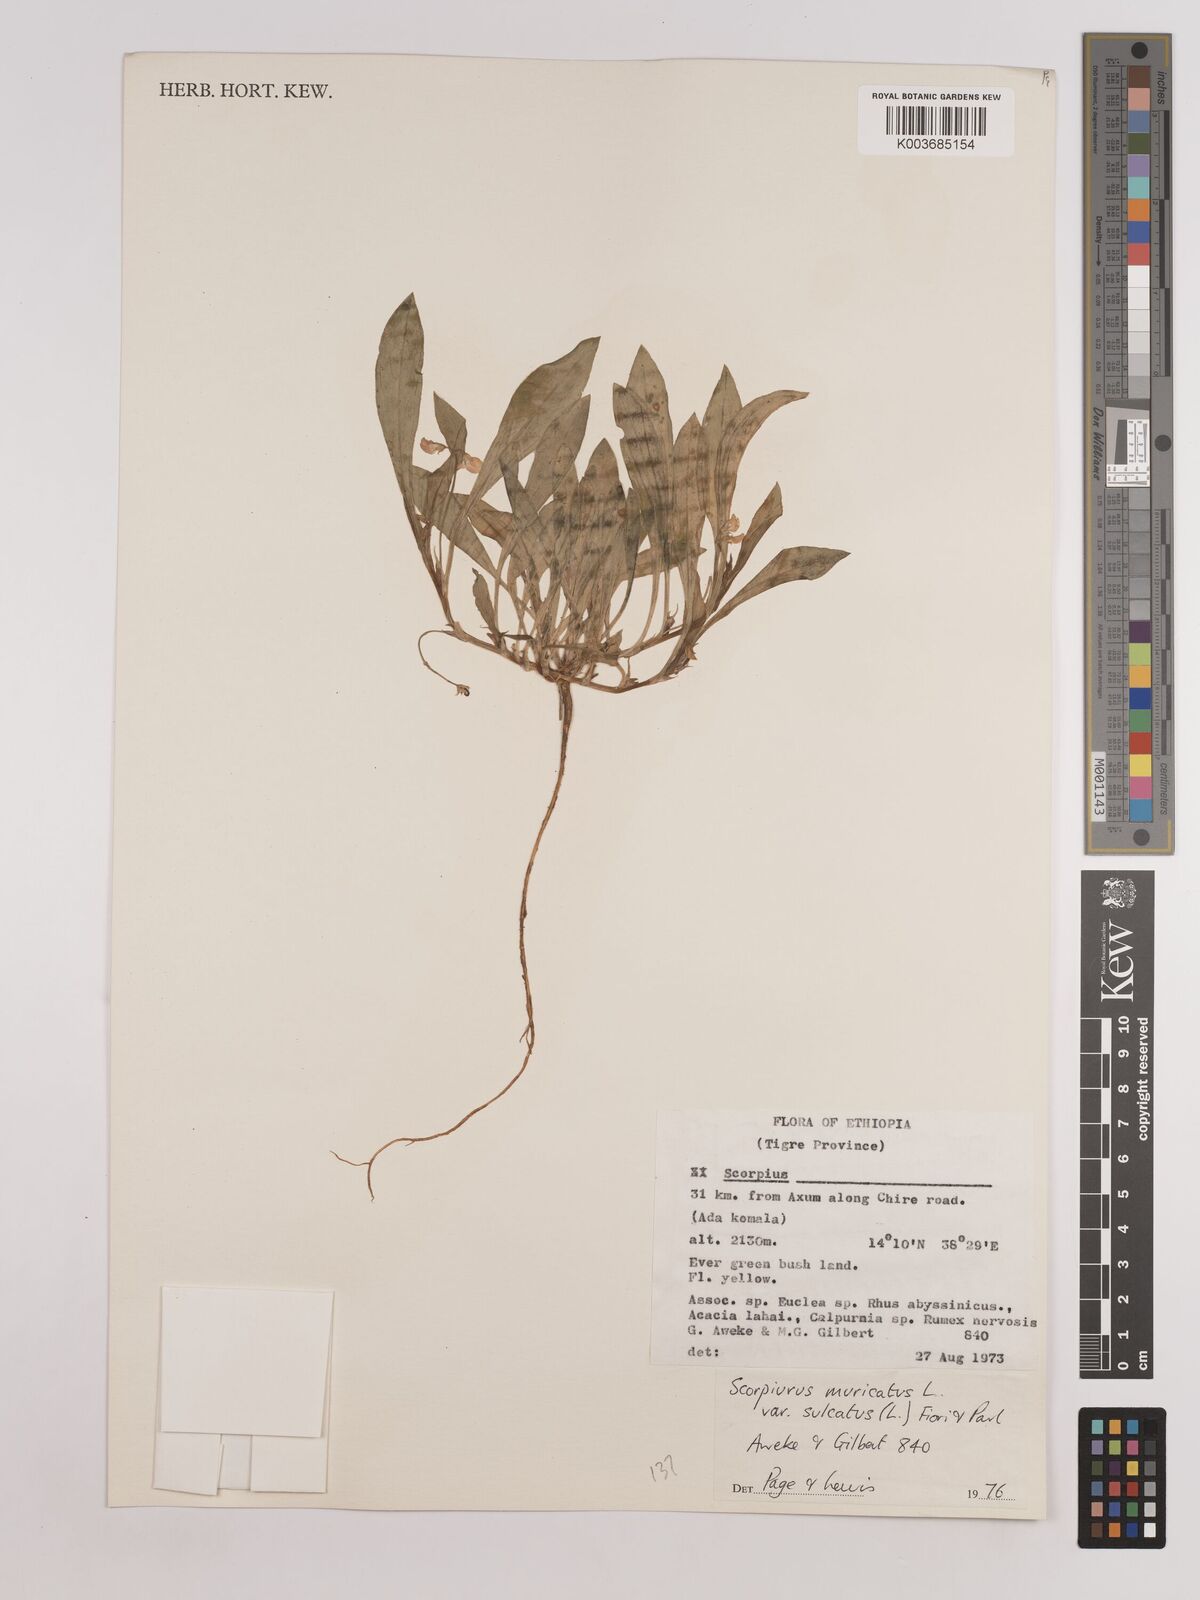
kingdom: Plantae
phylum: Tracheophyta
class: Magnoliopsida
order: Fabales
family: Fabaceae
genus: Scorpiurus
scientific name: Scorpiurus muricatus
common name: Caterpillar-plant
